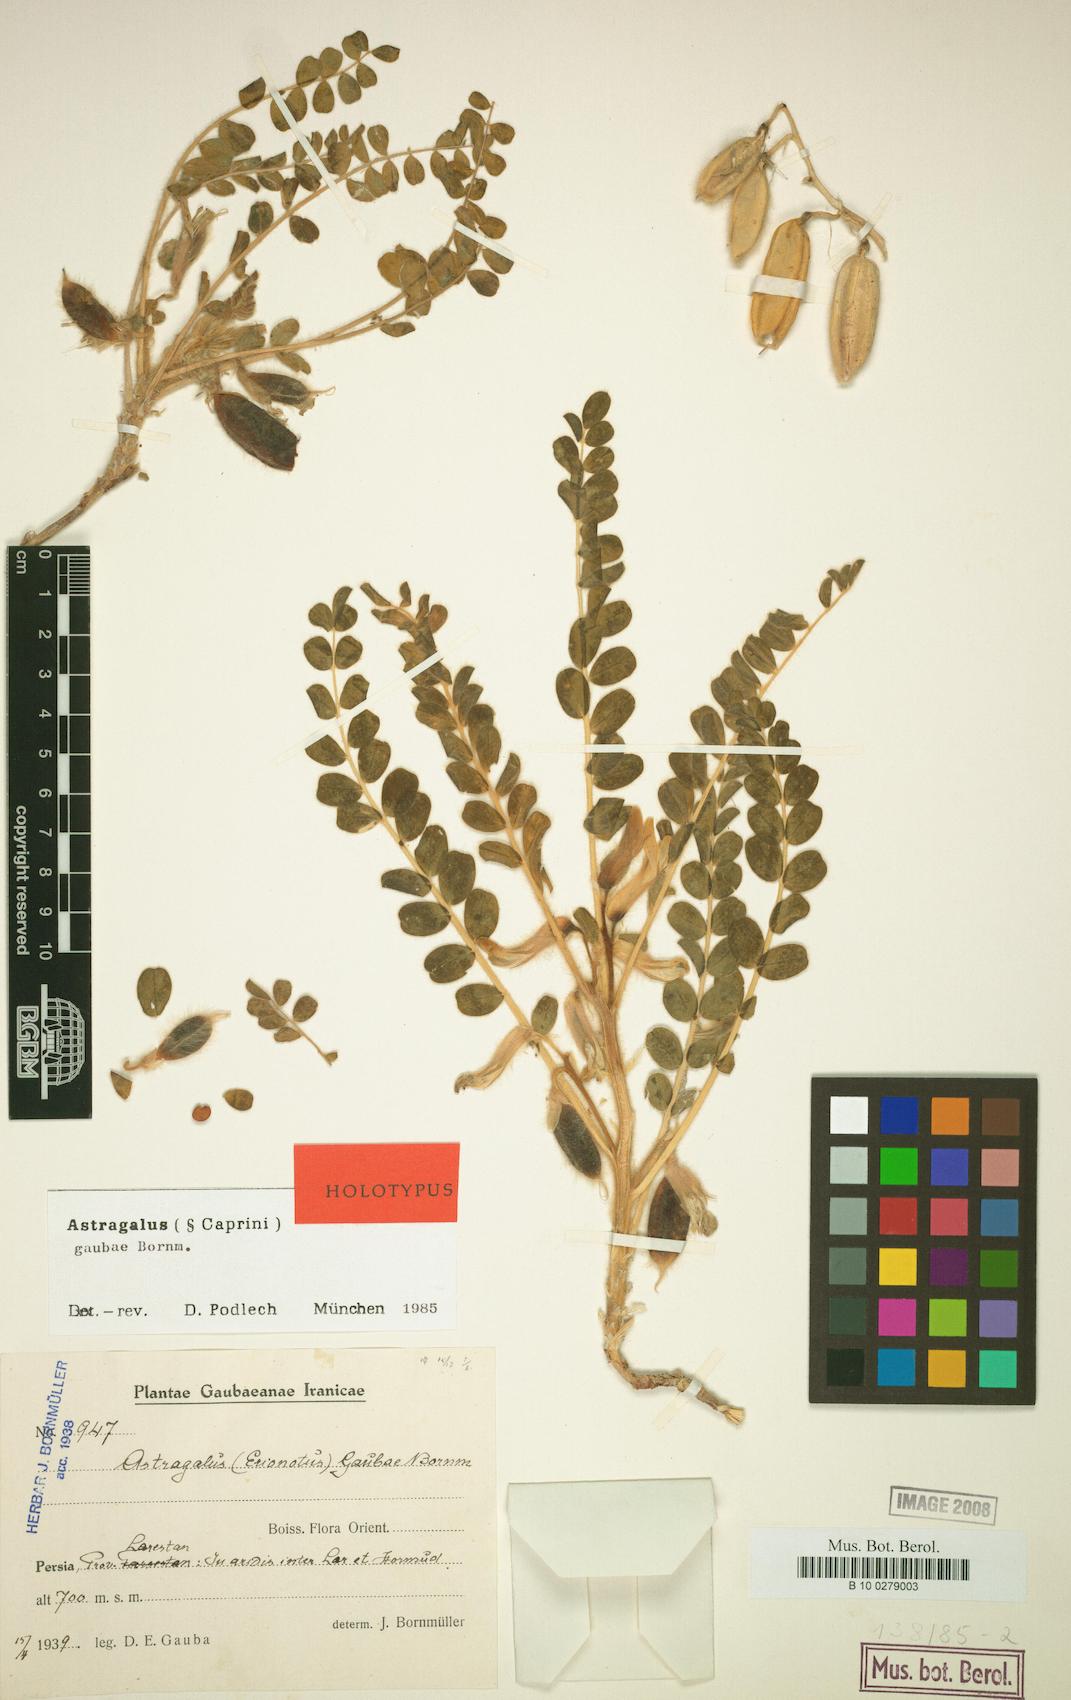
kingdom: Plantae
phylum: Tracheophyta
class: Magnoliopsida
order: Fabales
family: Fabaceae
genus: Astragalus
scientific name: Astragalus gaubae
